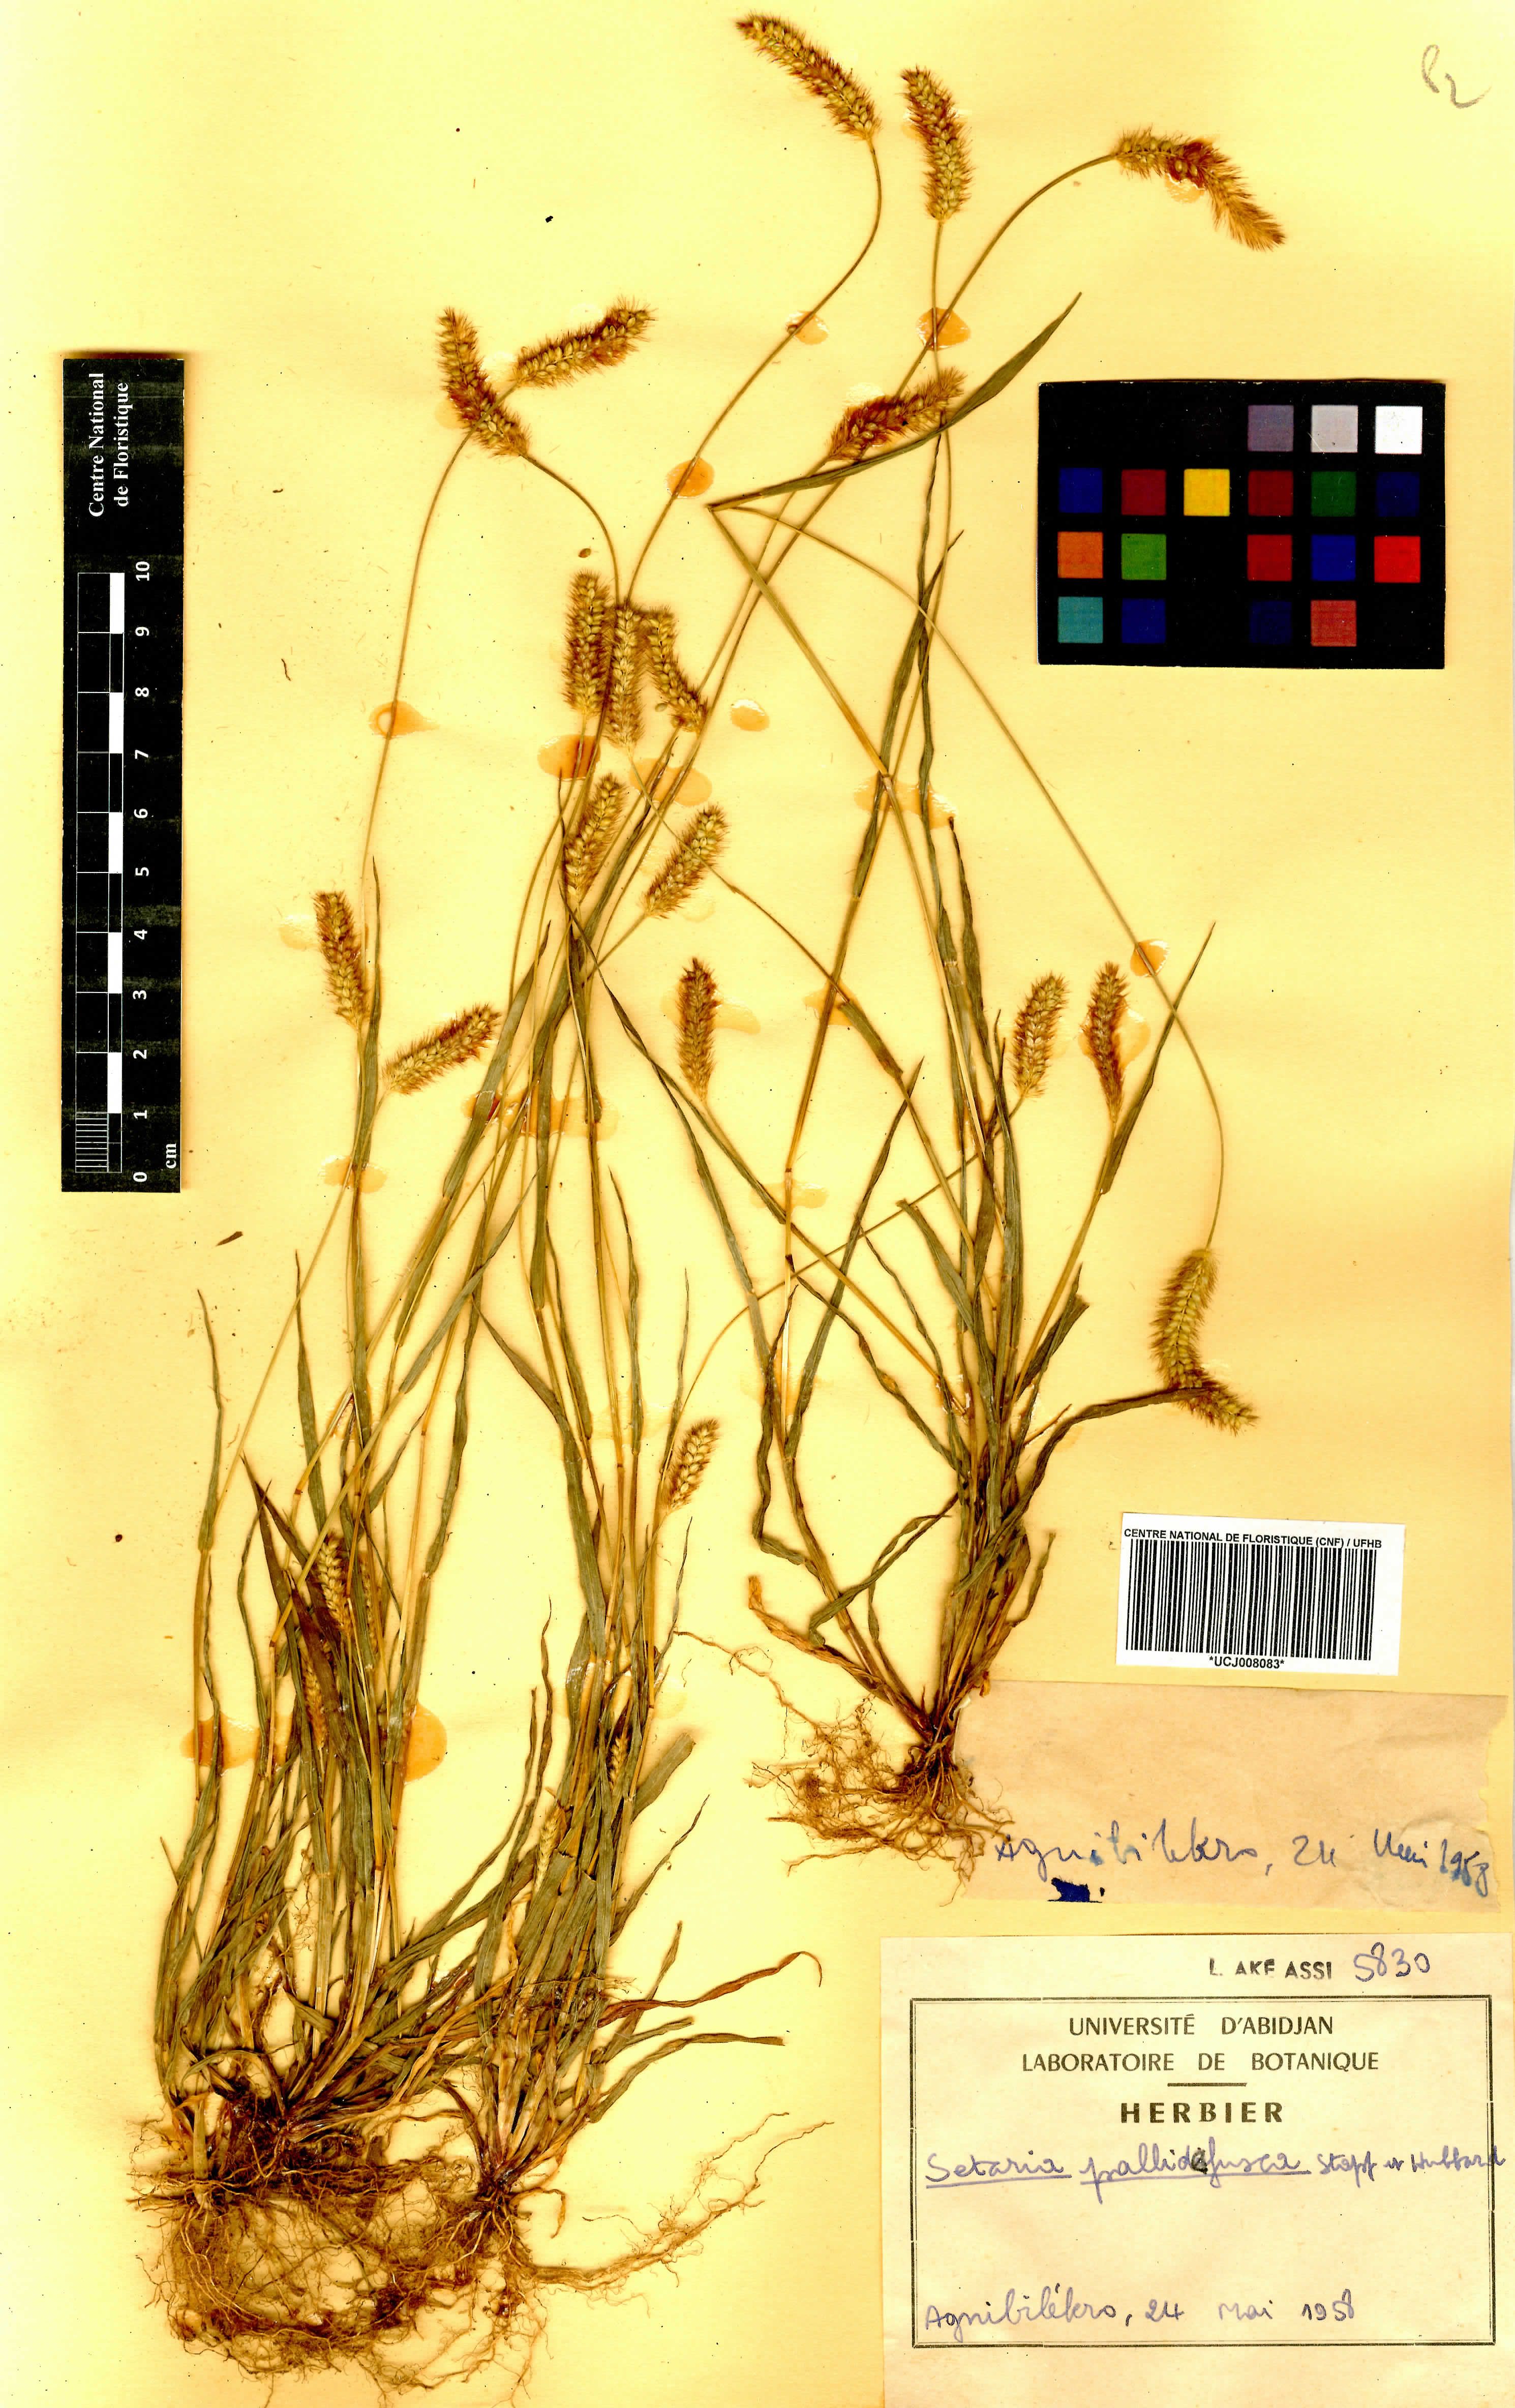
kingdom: Plantae
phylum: Tracheophyta
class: Liliopsida
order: Poales
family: Poaceae
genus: Setaria
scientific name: Setaria italica
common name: Foxtail bristle-grass
